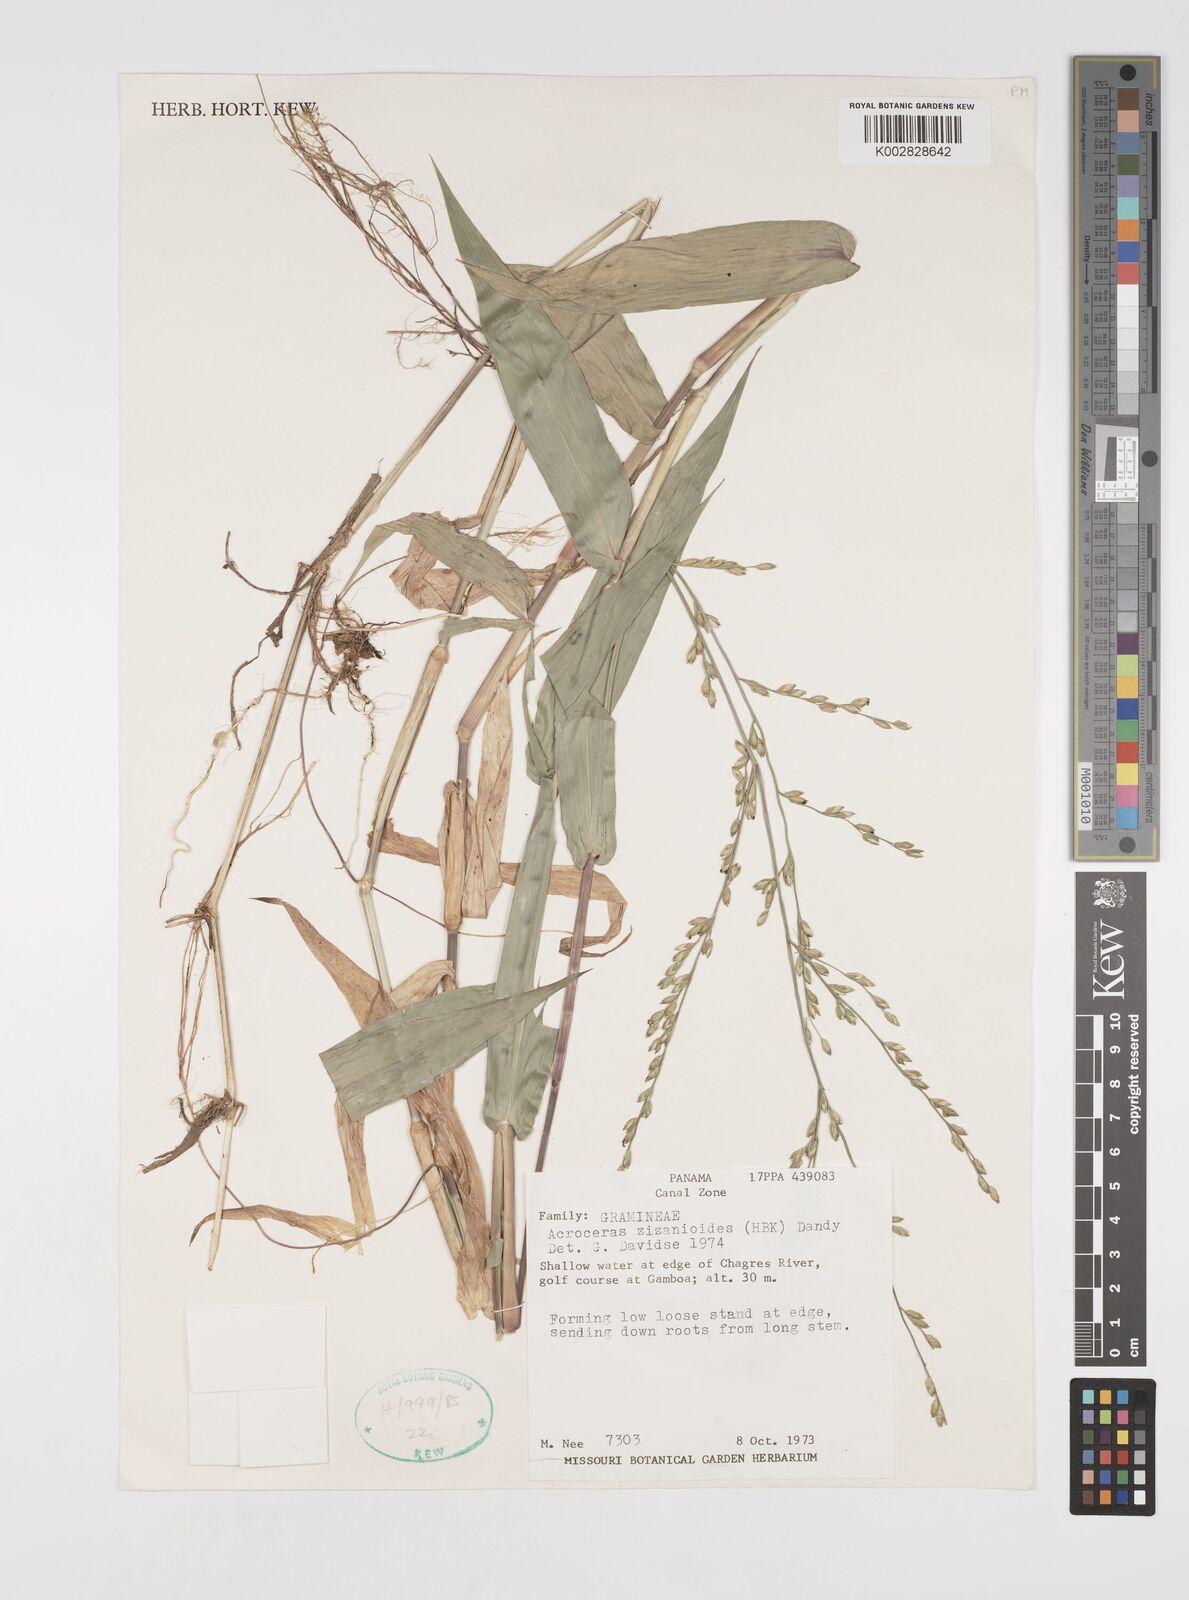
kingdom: Plantae
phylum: Tracheophyta
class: Liliopsida
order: Poales
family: Poaceae
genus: Acroceras
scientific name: Acroceras zizanioides
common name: Oat grass
